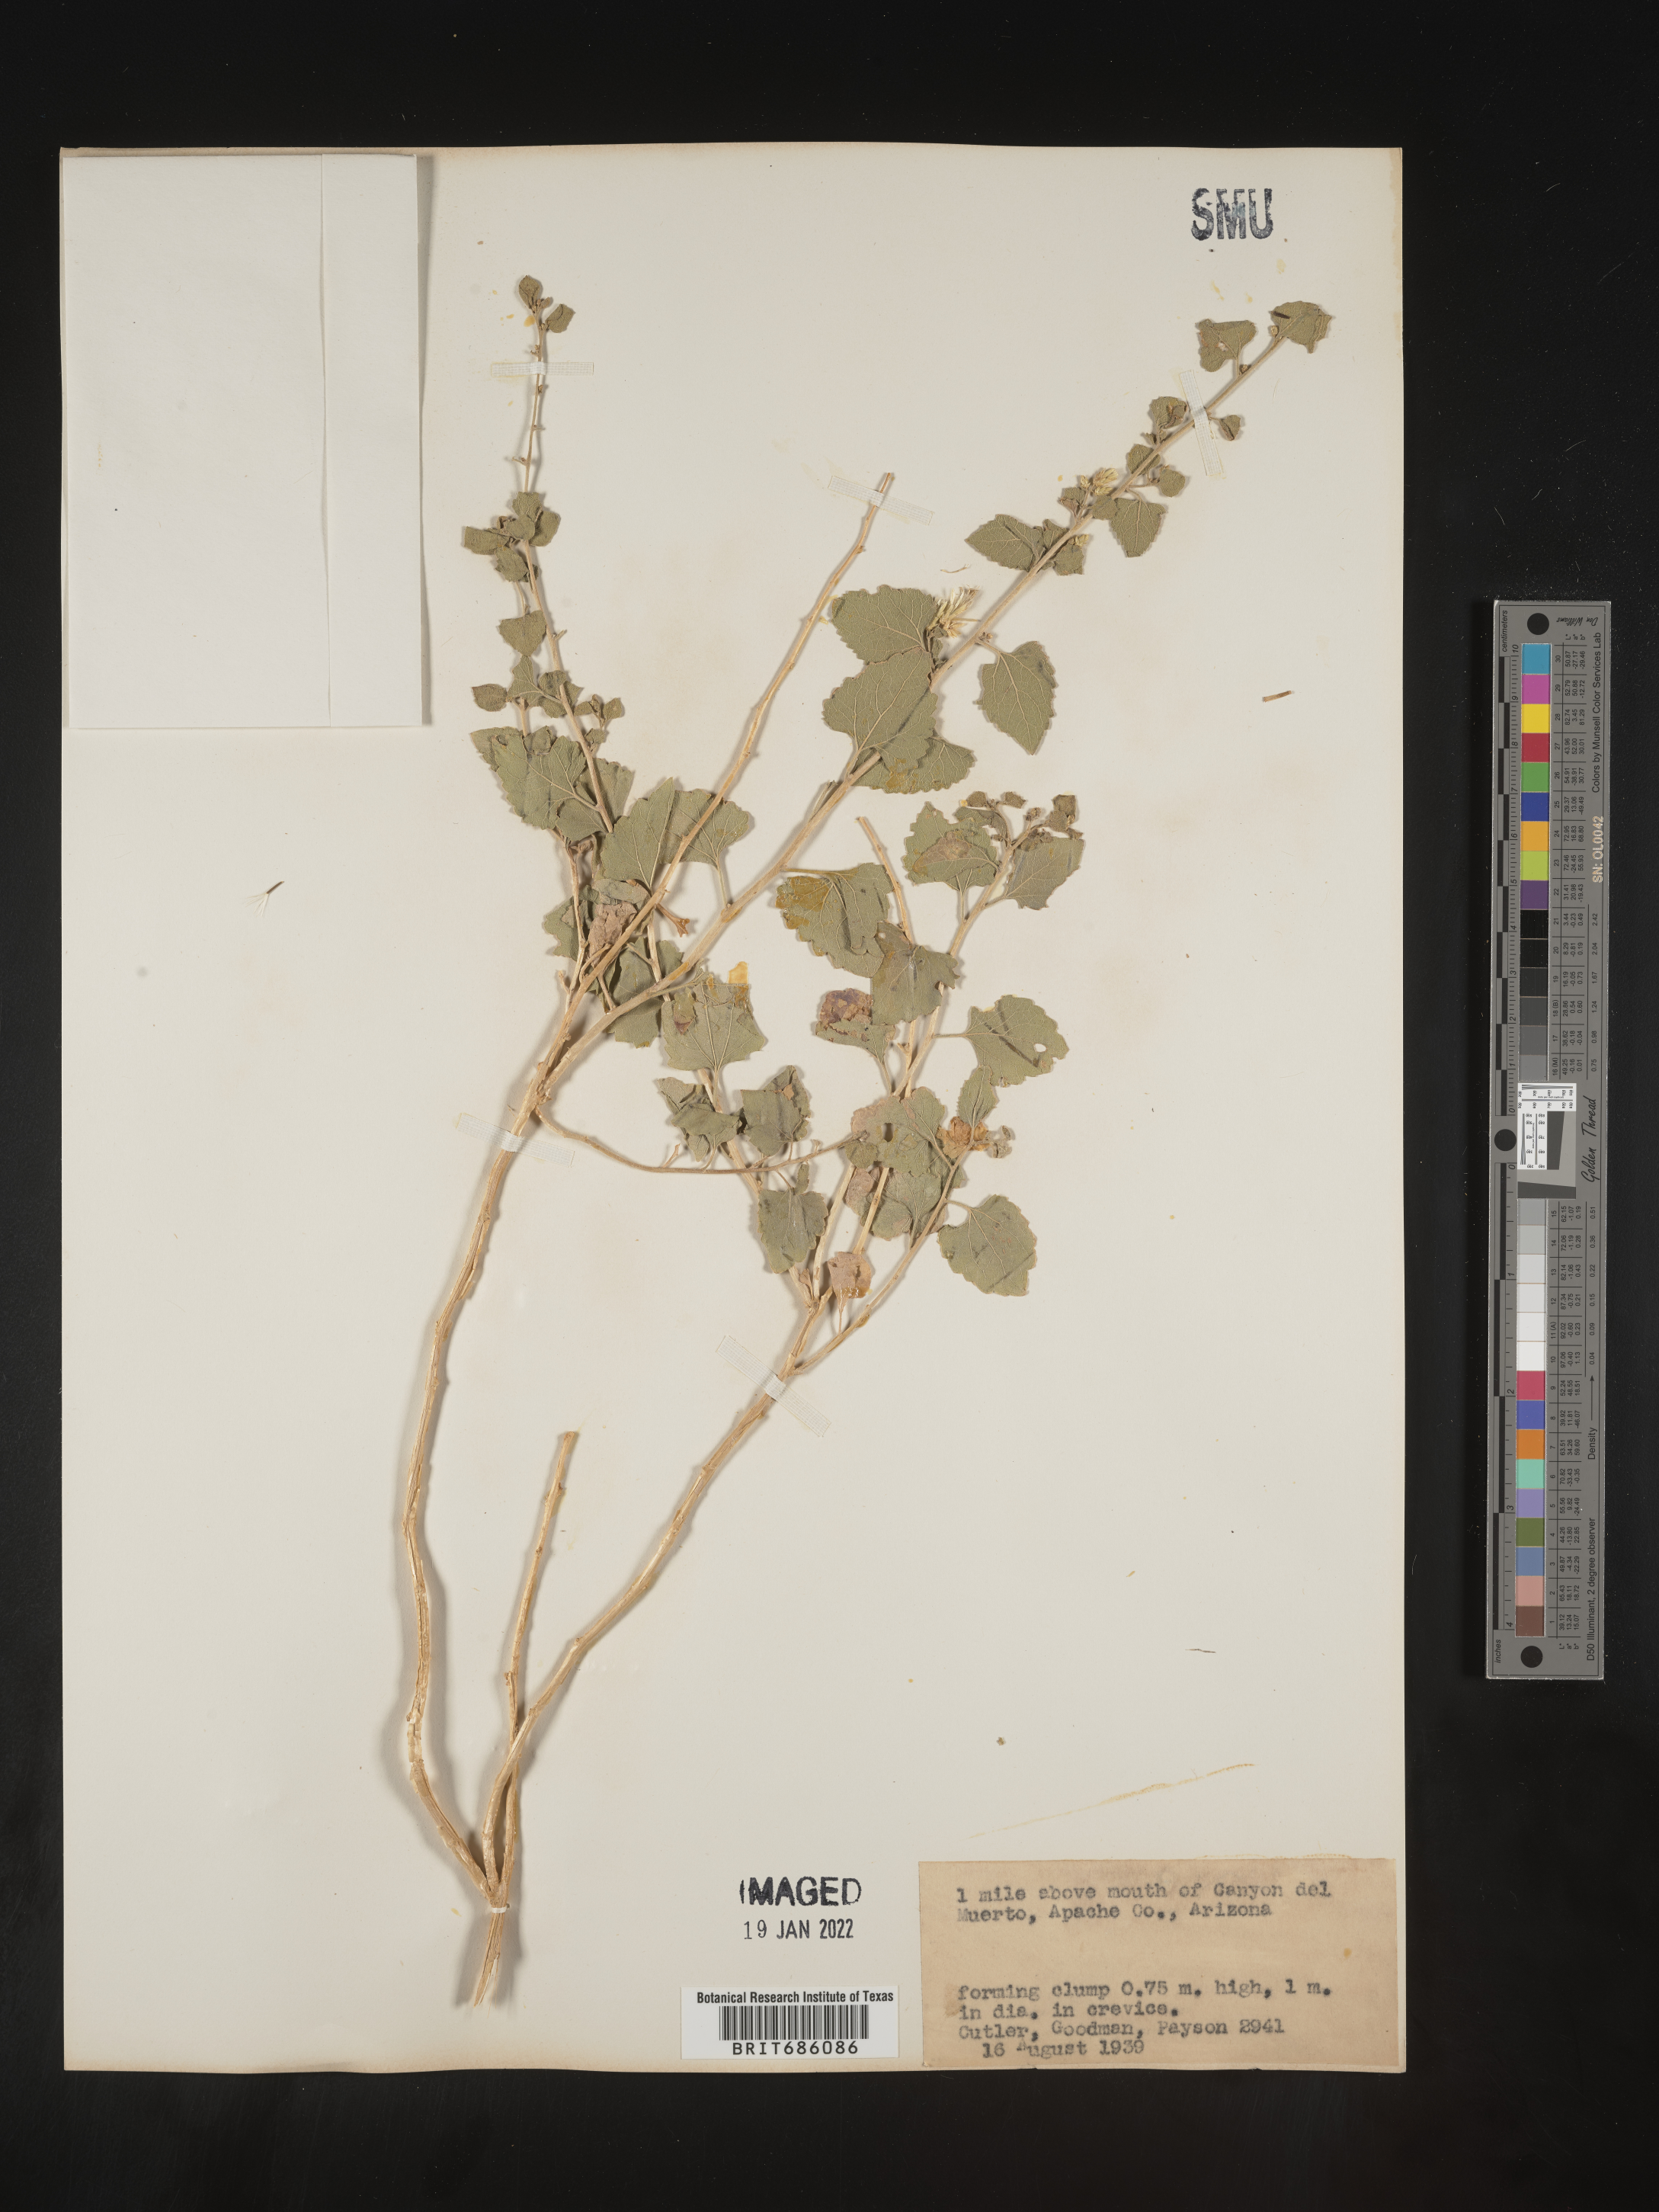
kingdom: Plantae
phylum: Tracheophyta
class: Magnoliopsida
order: Asterales
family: Asteraceae
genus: Brickellia
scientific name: Brickellia
